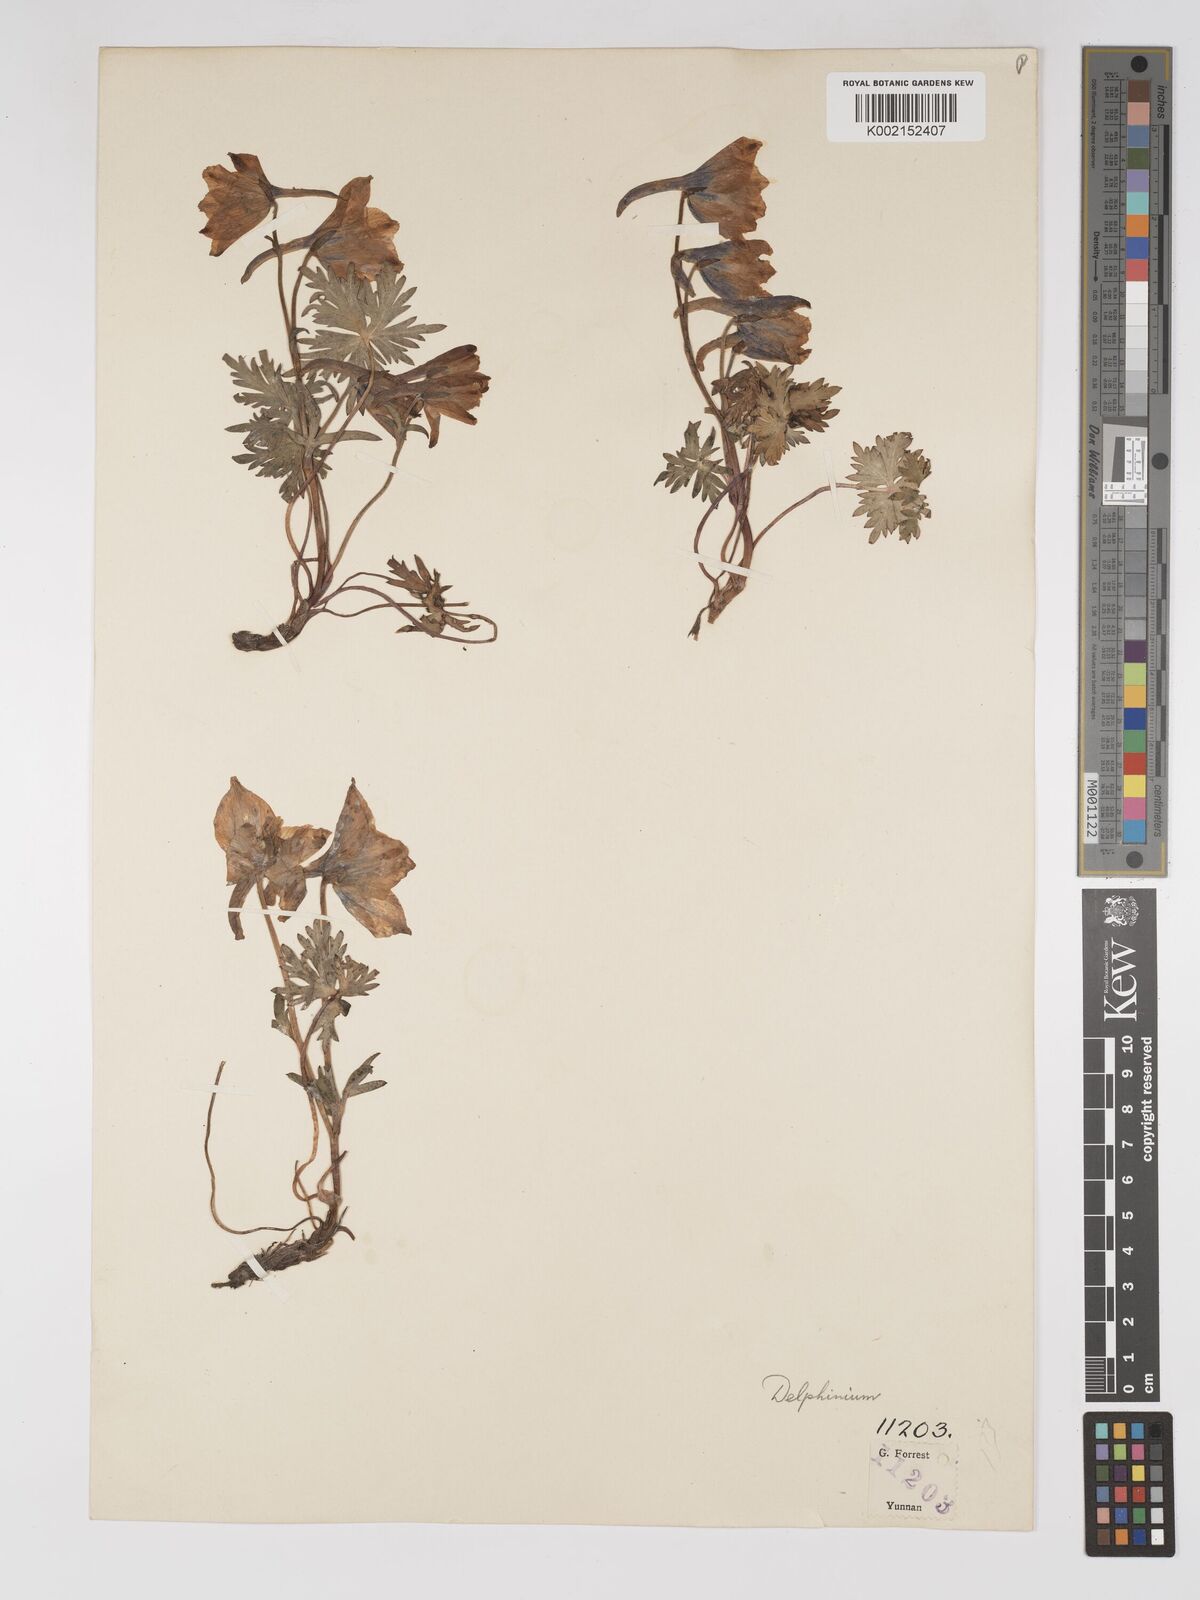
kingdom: Plantae
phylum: Tracheophyta
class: Magnoliopsida
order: Ranunculales
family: Ranunculaceae
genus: Delphinium
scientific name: Delphinium likiangense
